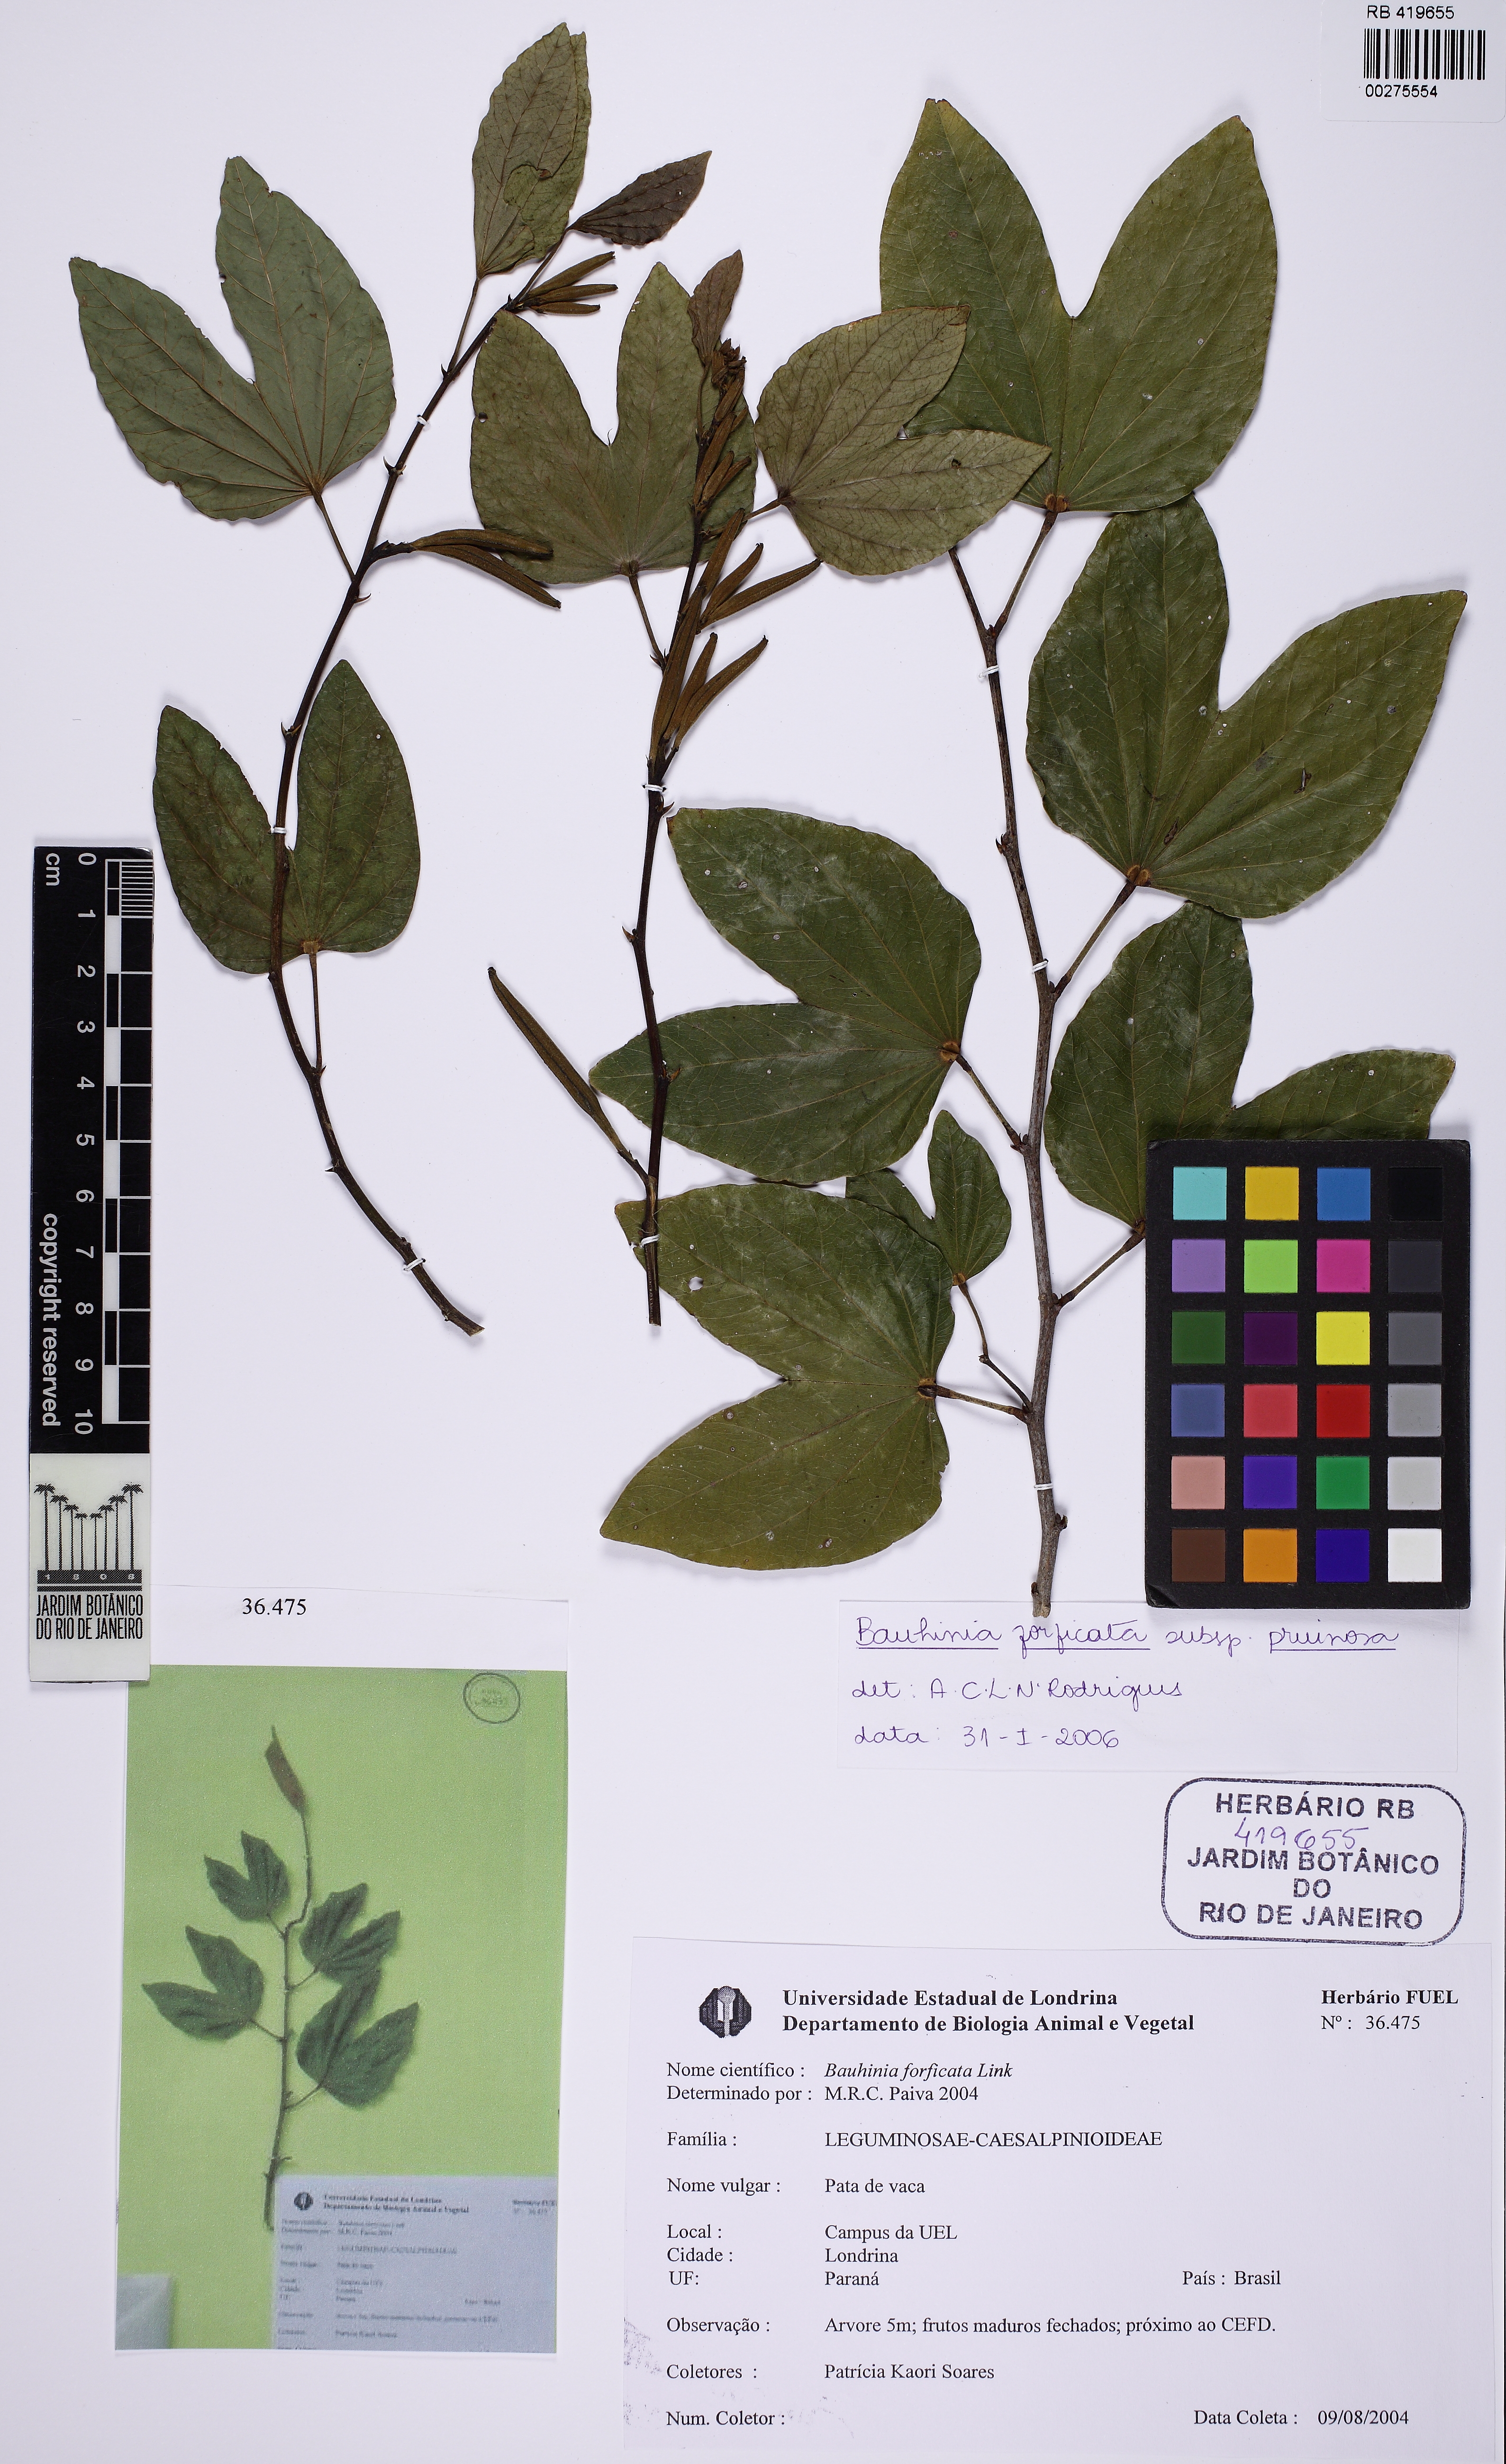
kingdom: Plantae
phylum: Tracheophyta
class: Magnoliopsida
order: Fabales
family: Fabaceae
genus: Bauhinia
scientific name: Bauhinia forficata
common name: Orchid tree
